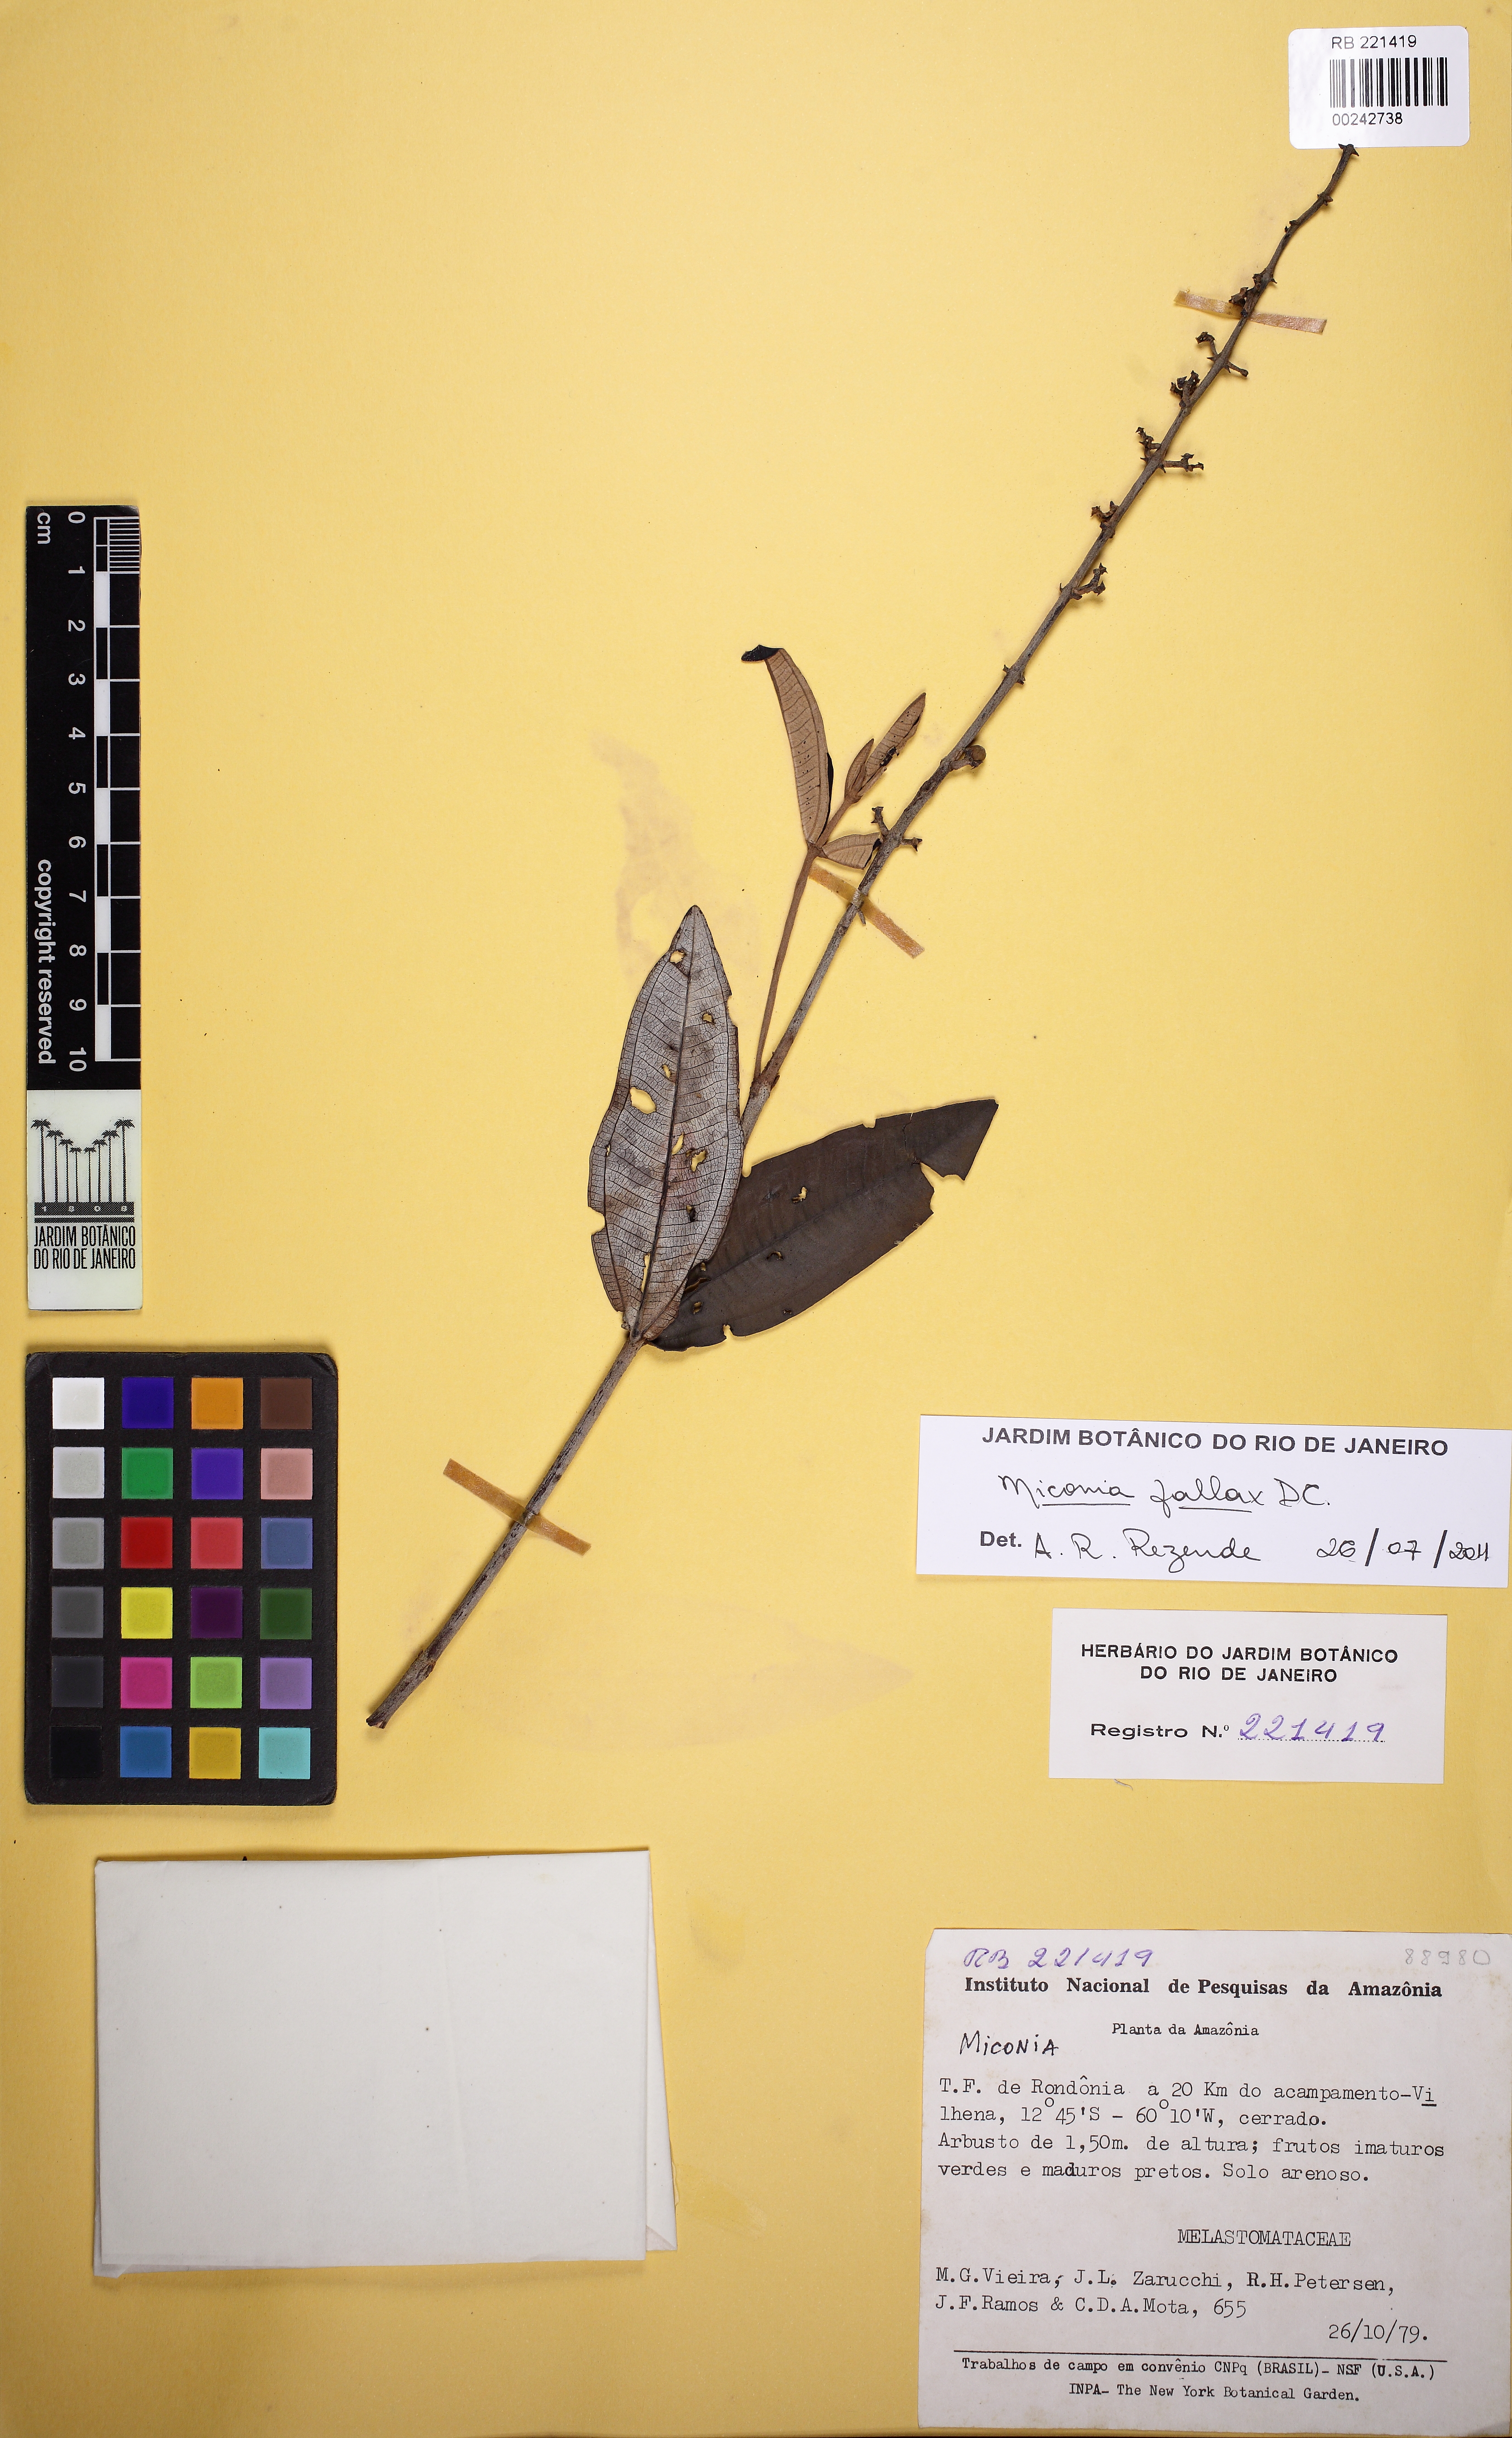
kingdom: Plantae
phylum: Tracheophyta
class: Magnoliopsida
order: Myrtales
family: Melastomataceae
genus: Miconia
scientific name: Miconia fallax
